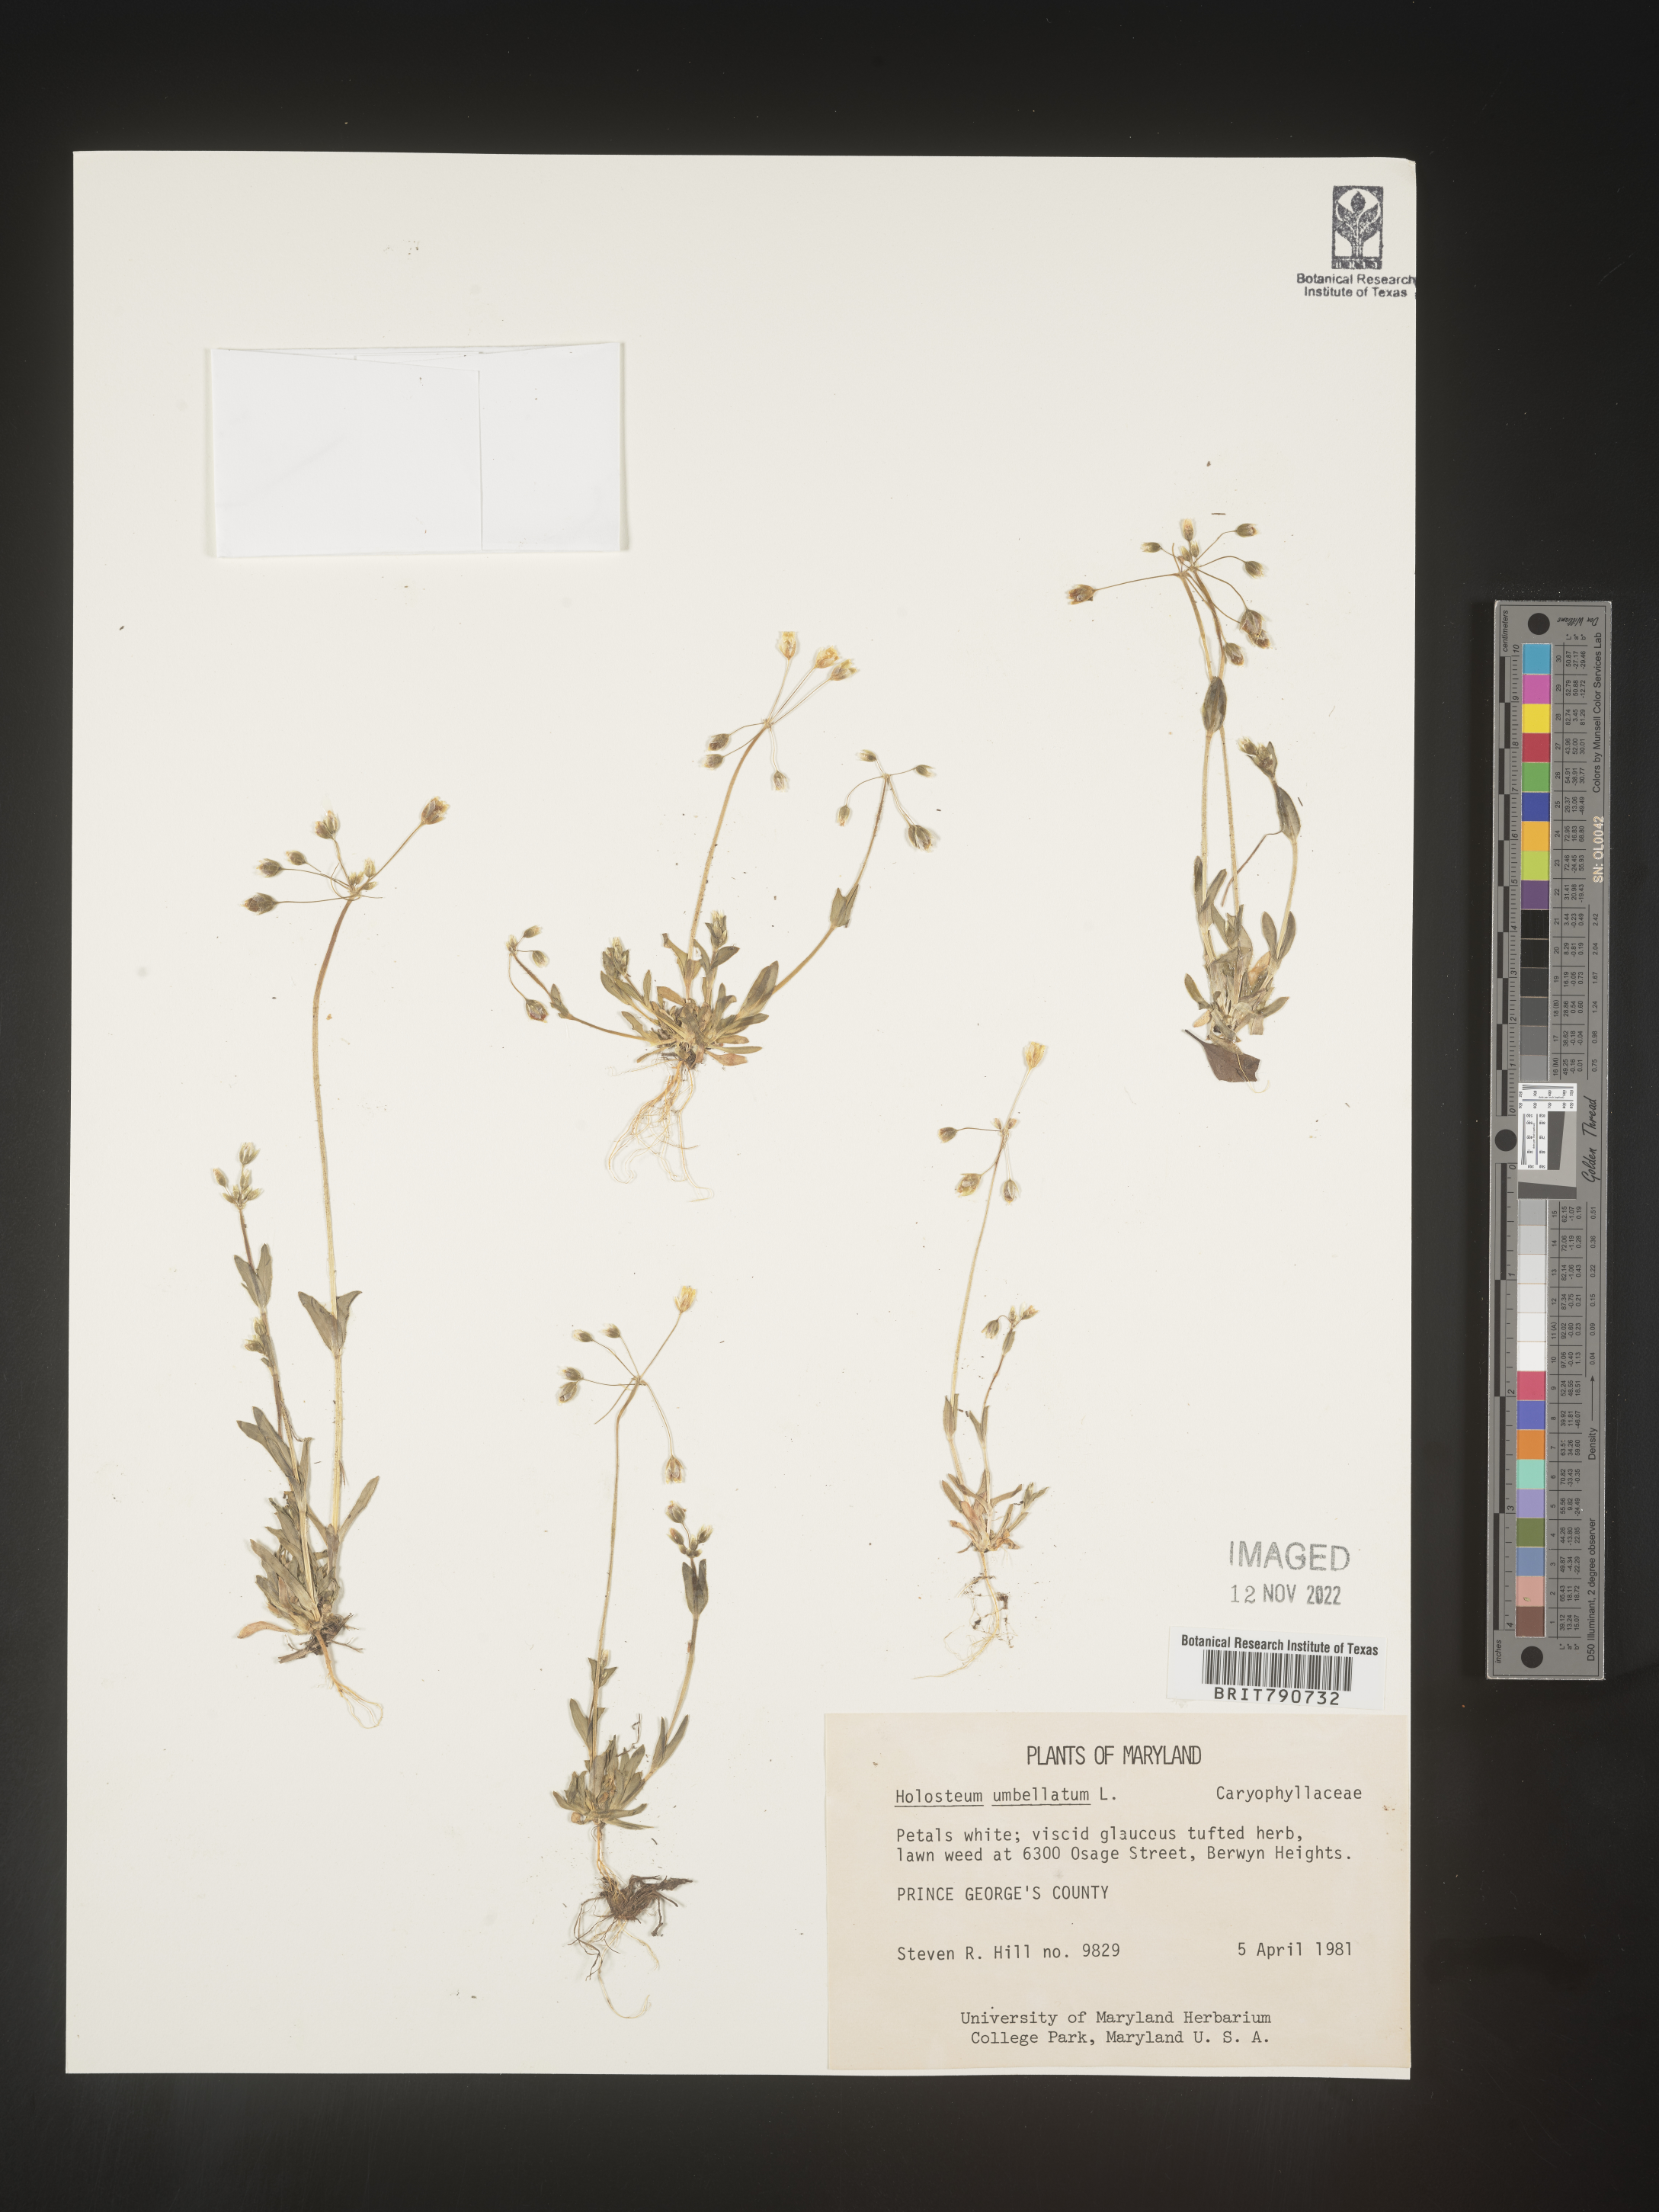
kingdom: Plantae
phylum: Tracheophyta
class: Magnoliopsida
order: Caryophyllales
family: Caryophyllaceae
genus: Holosteum
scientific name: Holosteum
